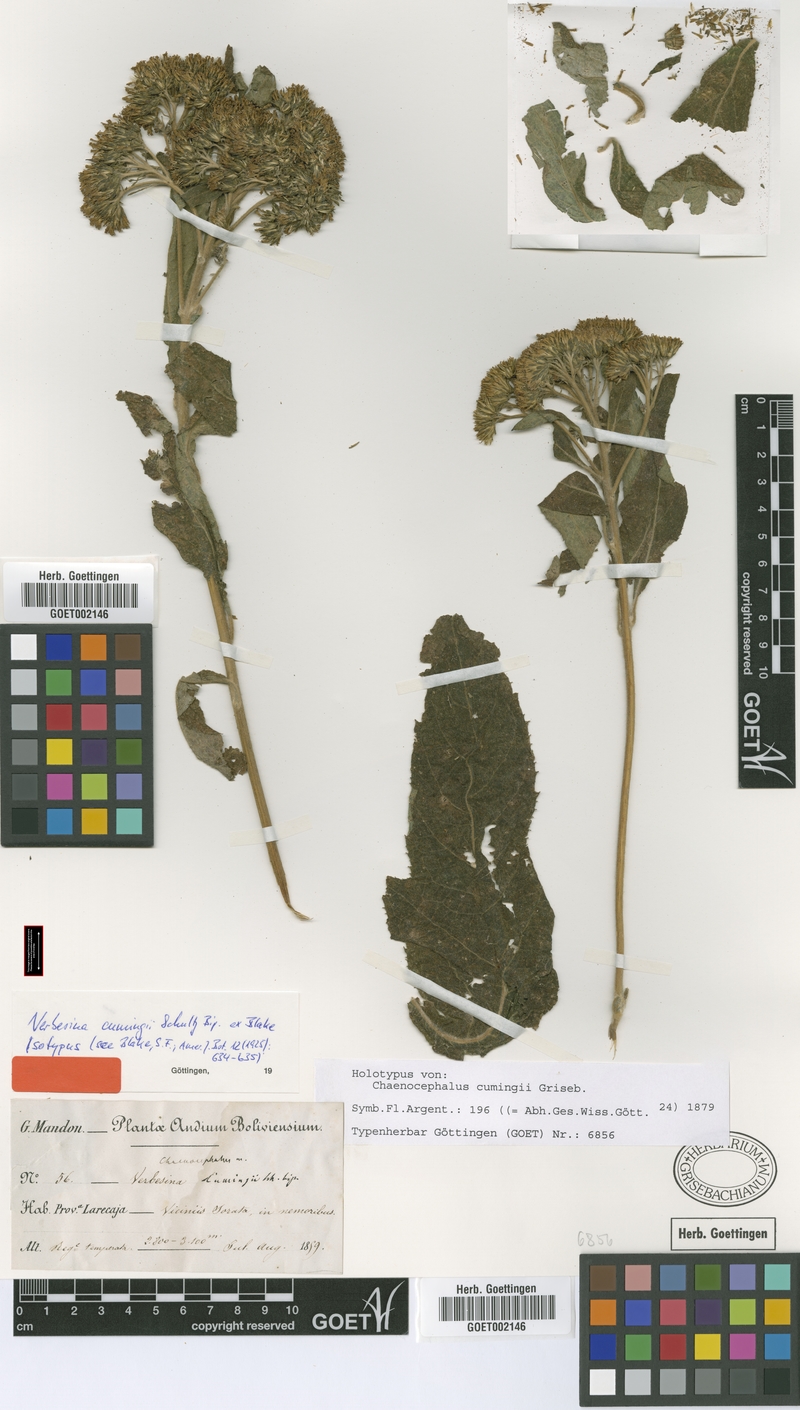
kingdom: Plantae
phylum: Tracheophyta
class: Magnoliopsida
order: Asterales
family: Asteraceae
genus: Verbesina
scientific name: Verbesina Chaenocephalus cumingii
